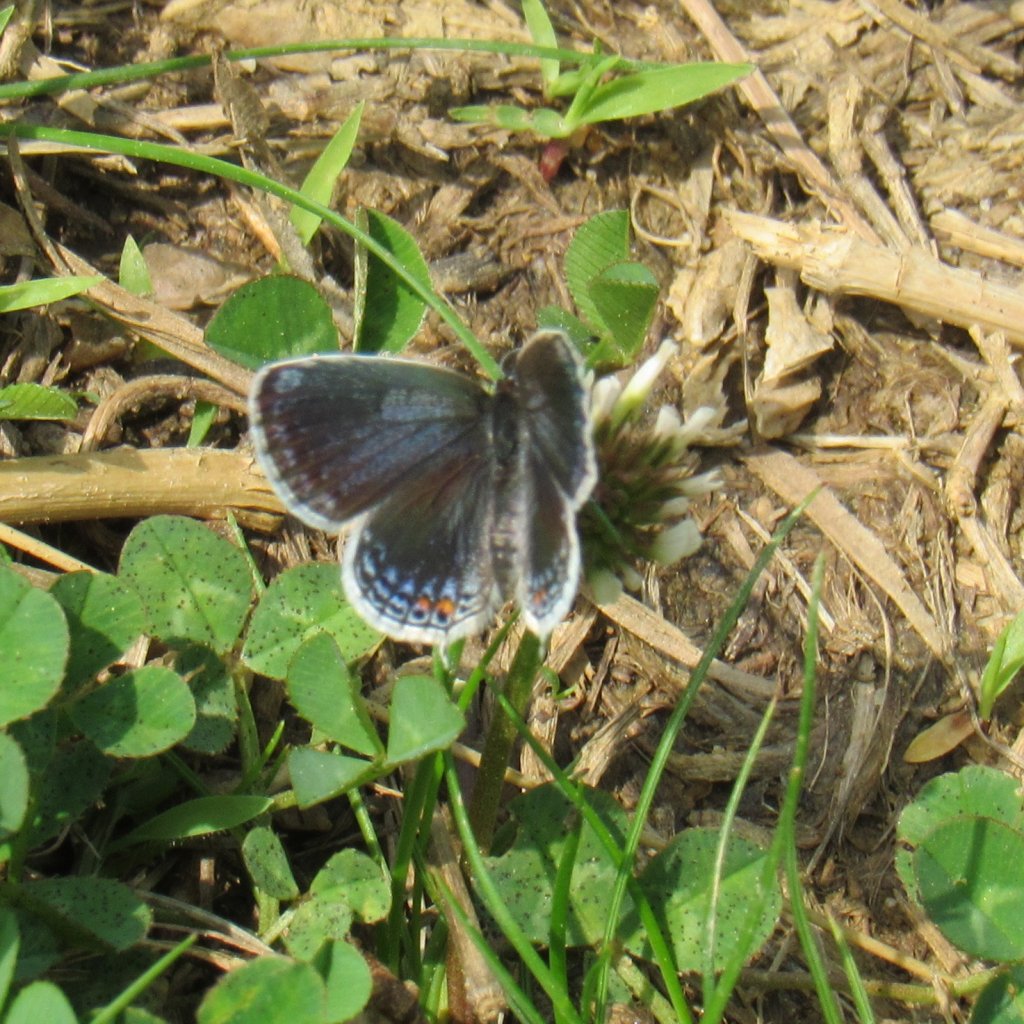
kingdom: Animalia
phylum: Arthropoda
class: Insecta
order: Lepidoptera
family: Lycaenidae
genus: Elkalyce
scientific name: Elkalyce comyntas
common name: Eastern Tailed-Blue
